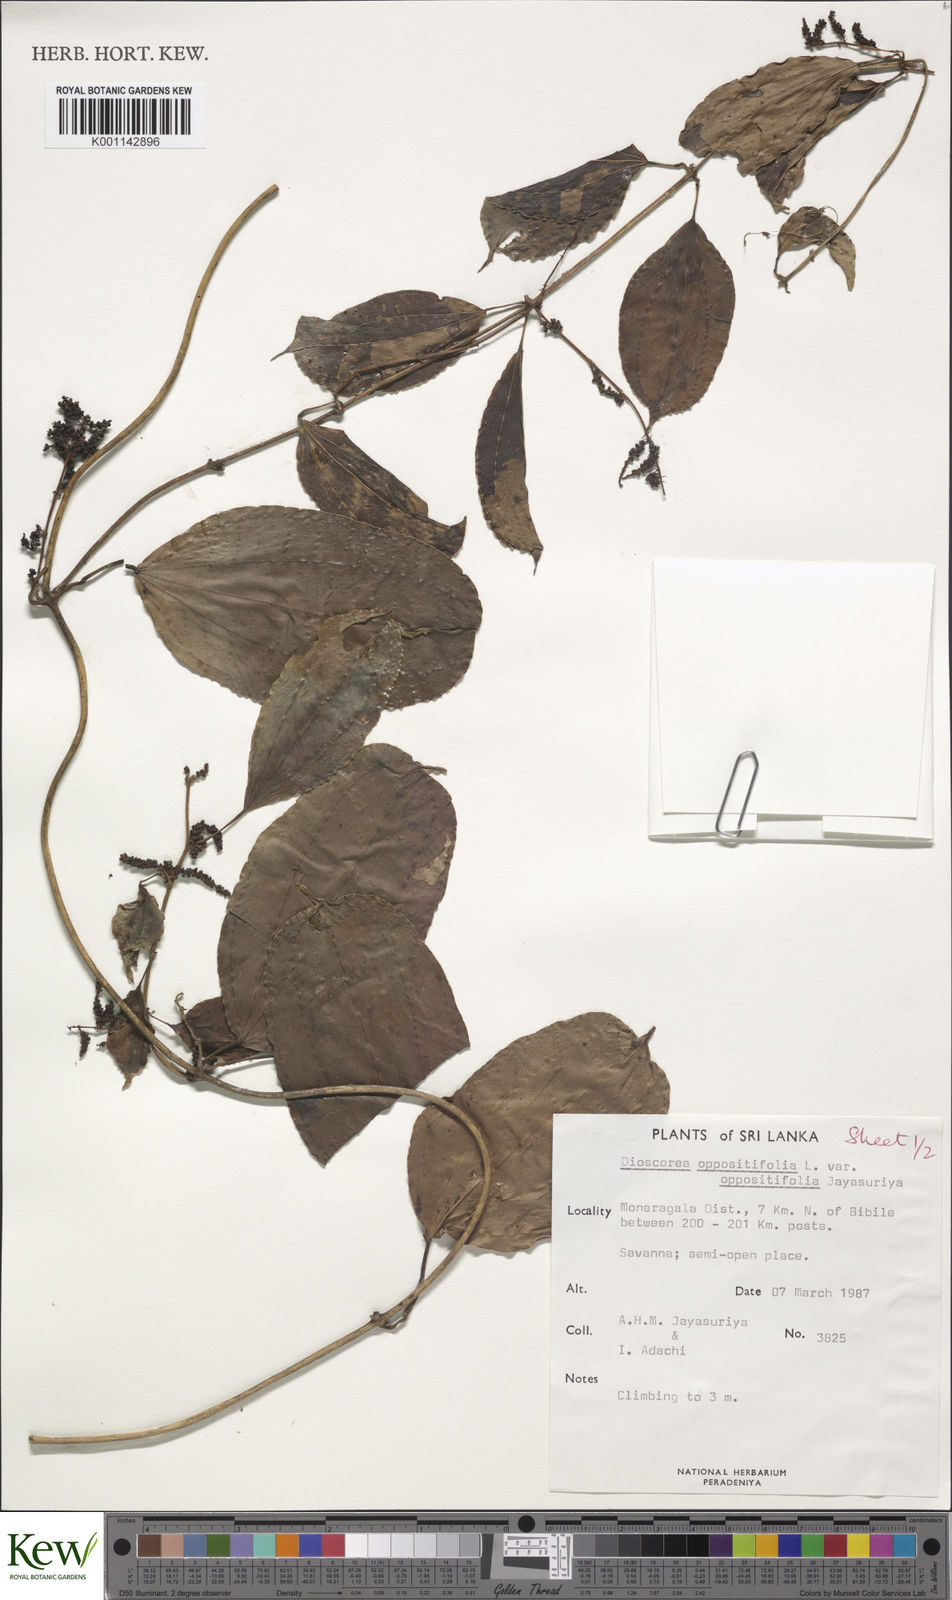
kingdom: Plantae
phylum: Tracheophyta
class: Liliopsida
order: Dioscoreales
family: Dioscoreaceae
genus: Dioscorea
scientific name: Dioscorea oppositifolia
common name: Chinese yam
